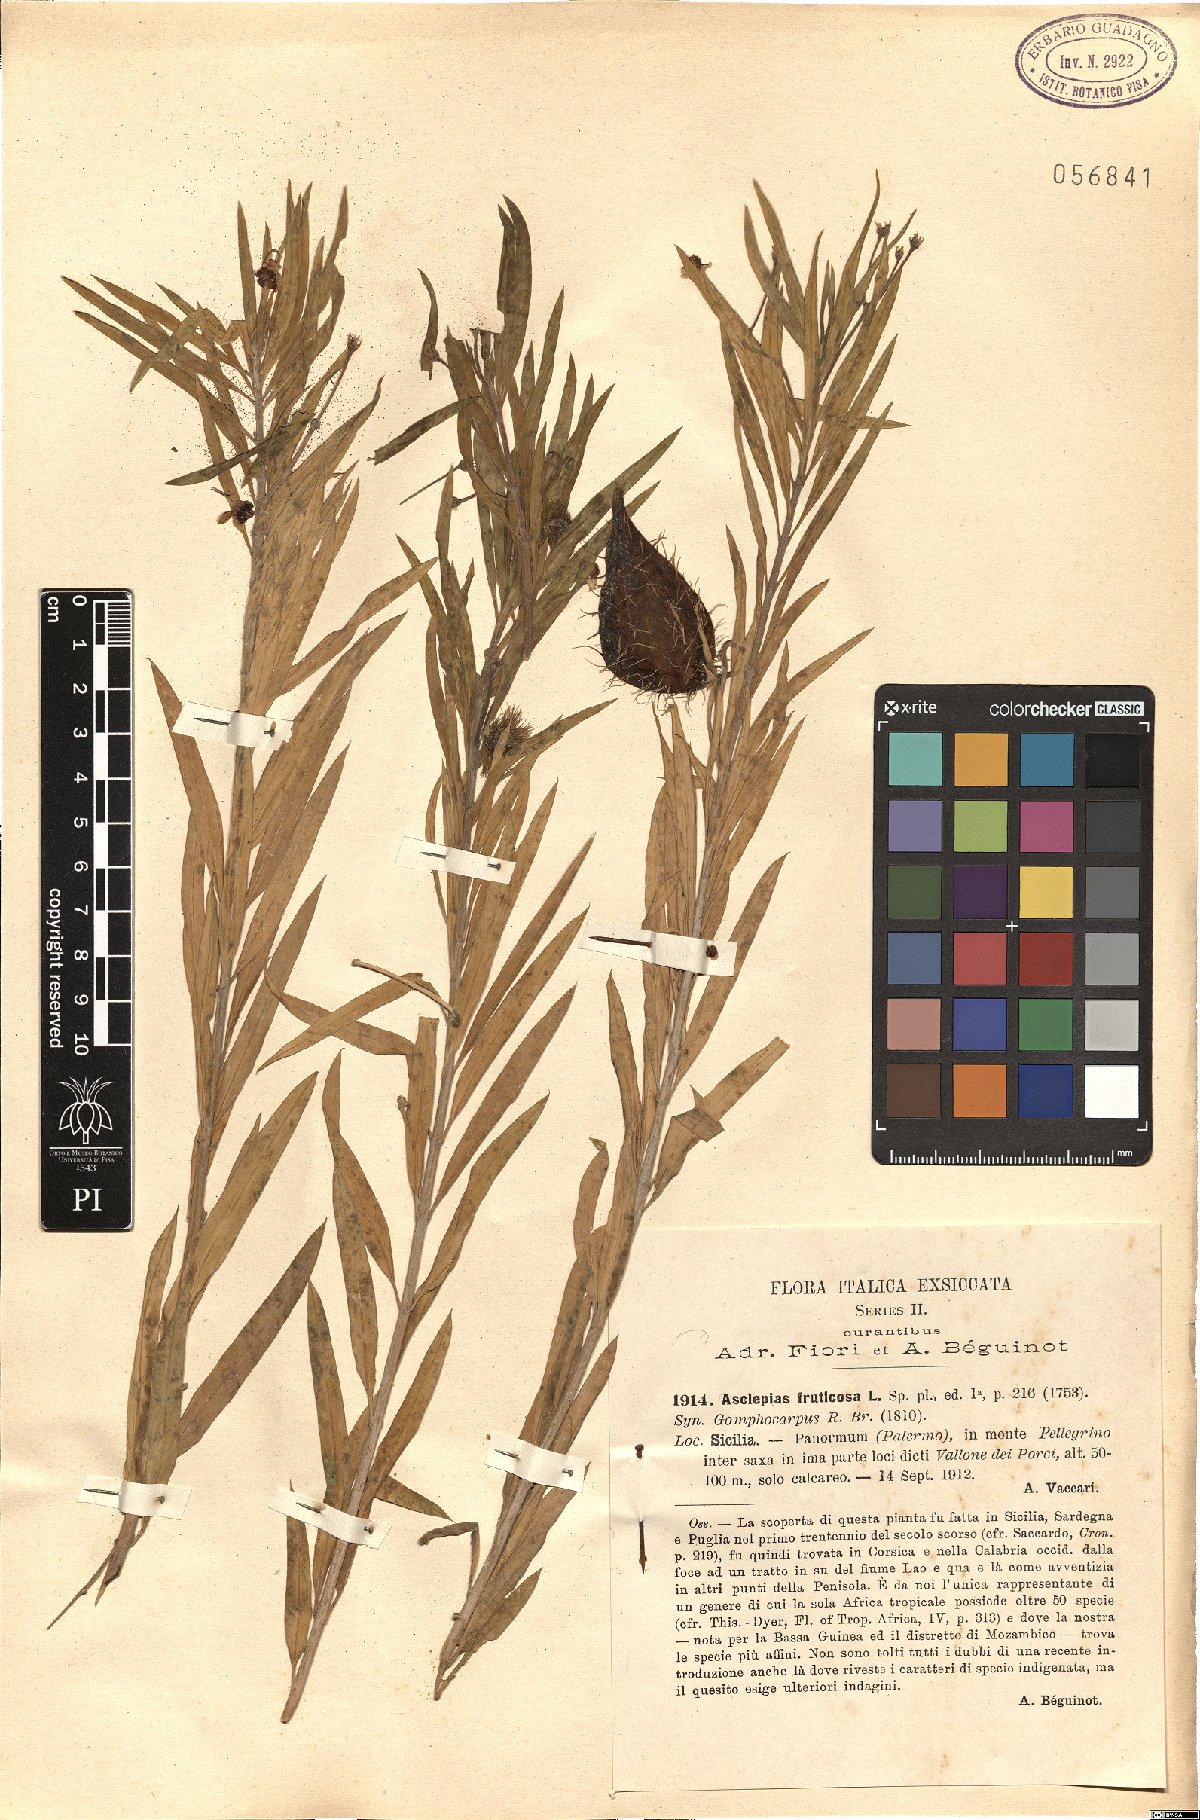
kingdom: Plantae
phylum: Tracheophyta
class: Magnoliopsida
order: Gentianales
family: Apocynaceae
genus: Gomphocarpus
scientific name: Gomphocarpus fruticosus
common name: Milkweed
